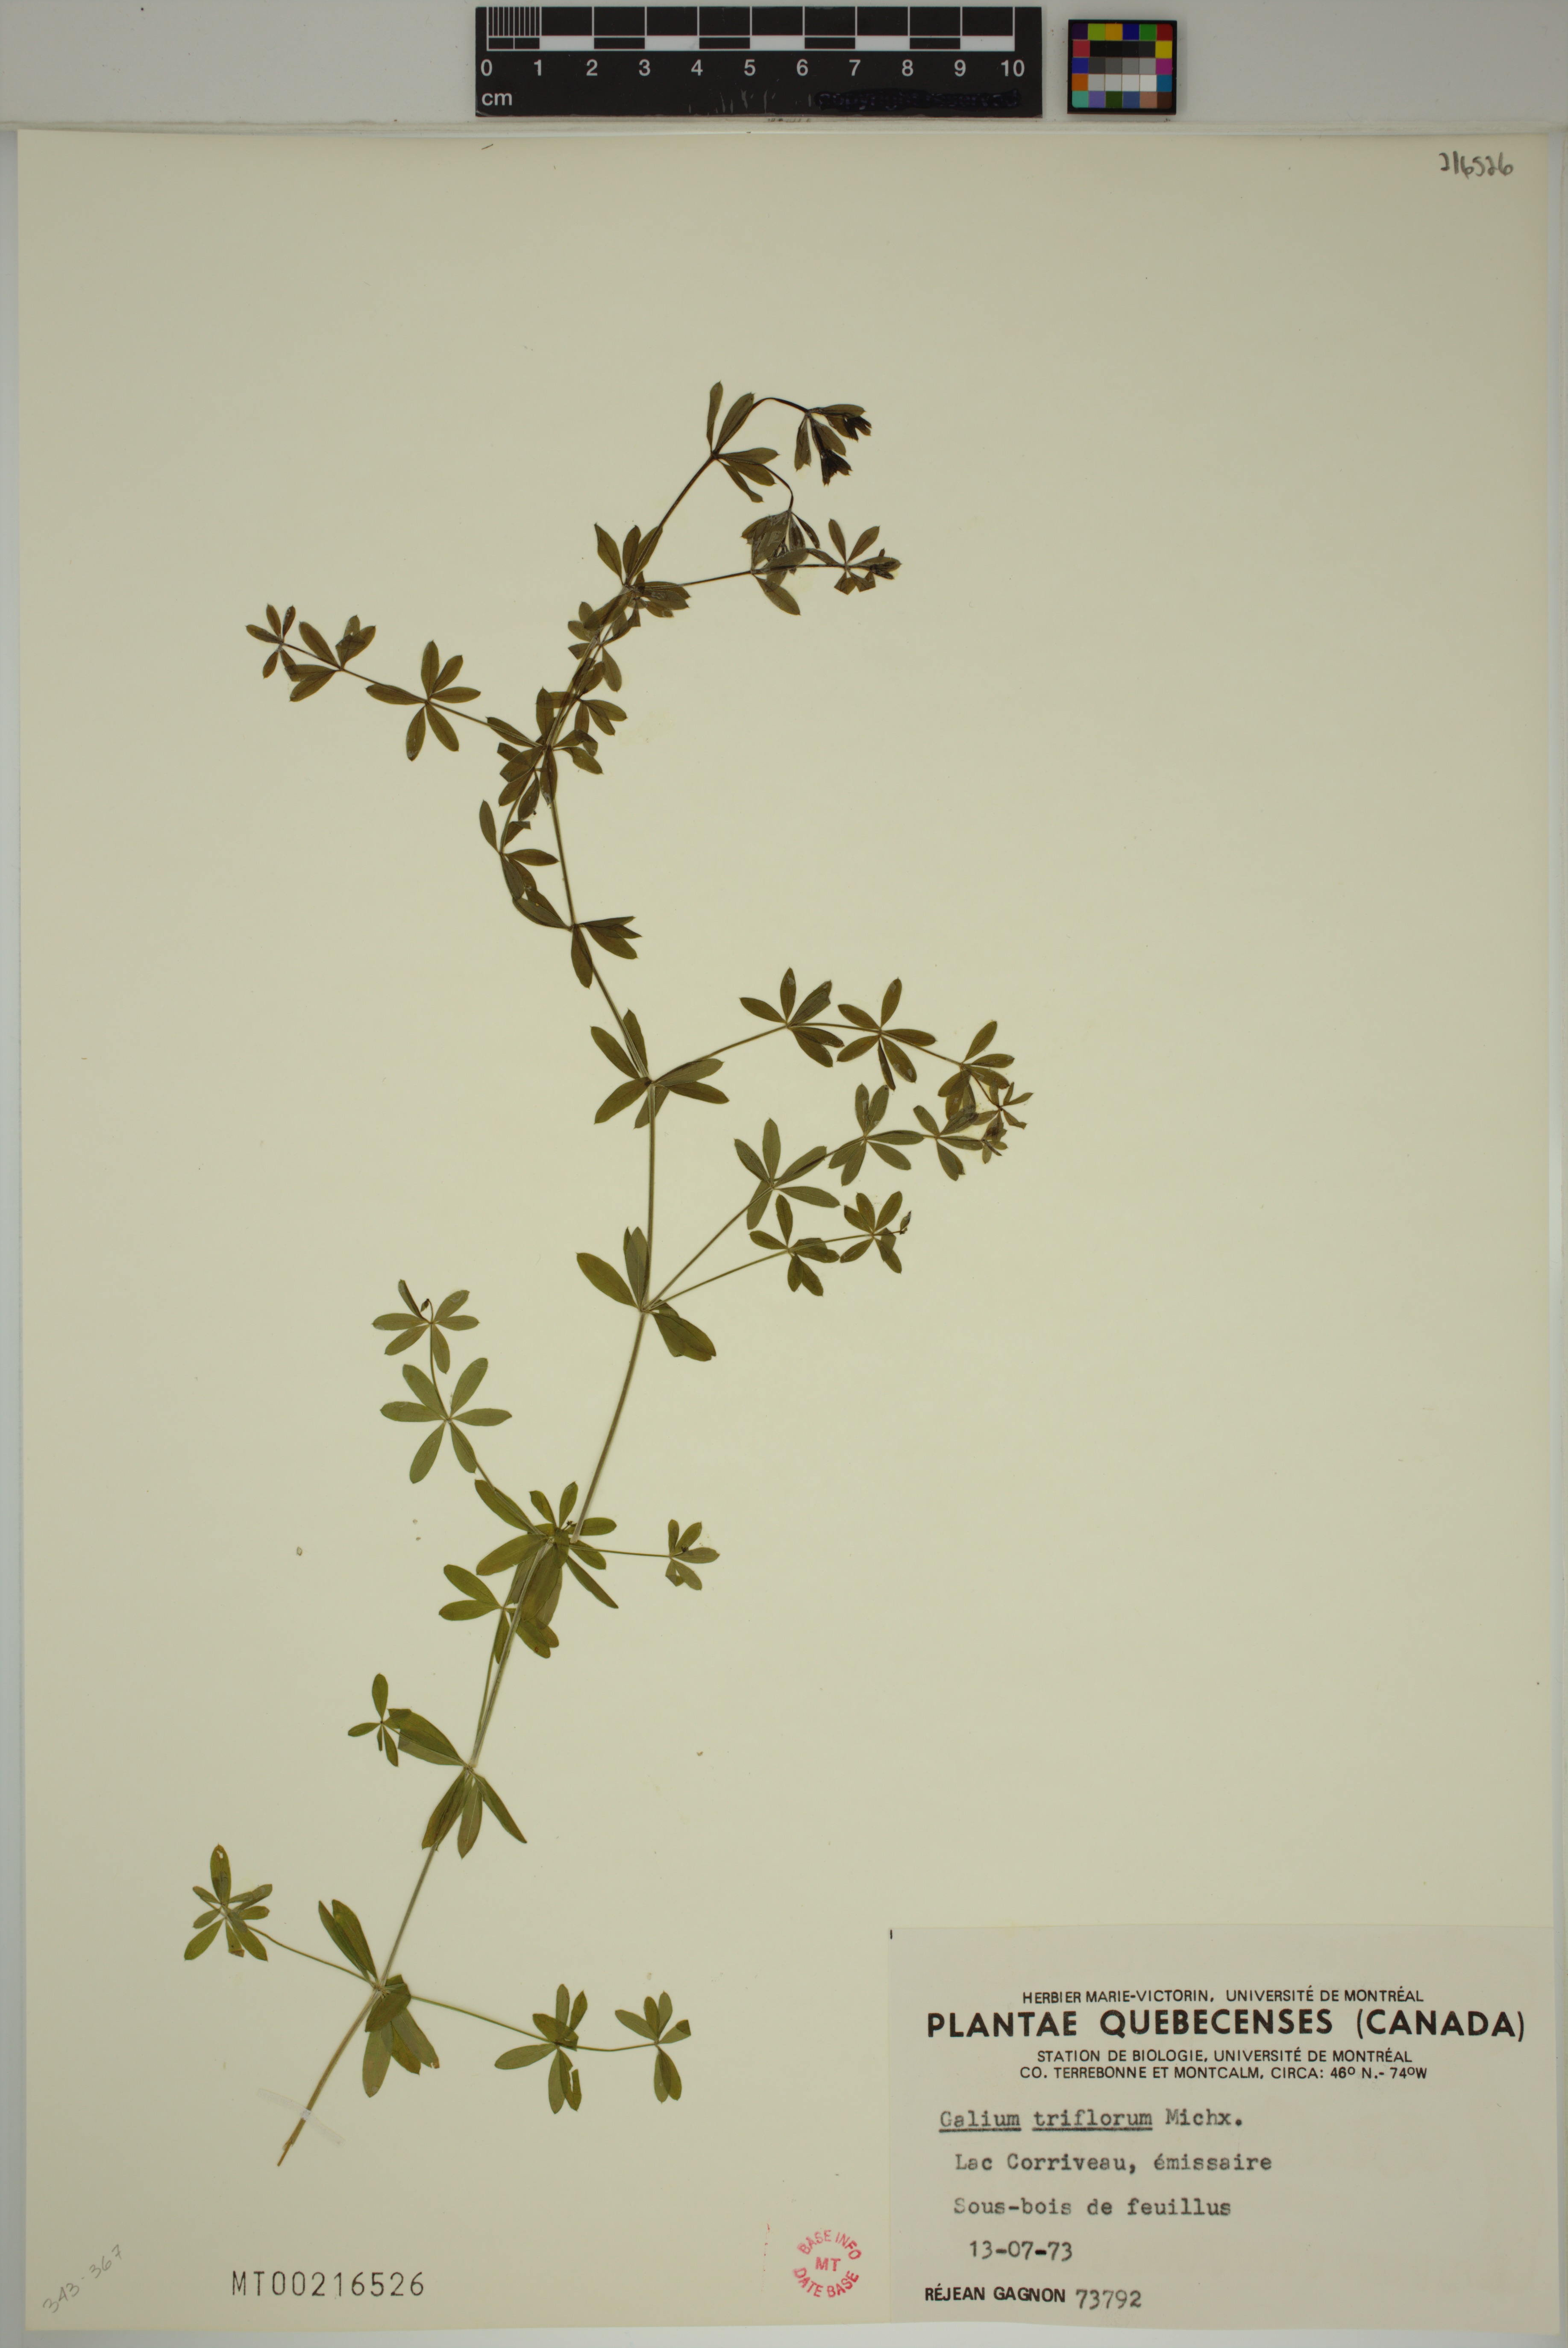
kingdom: Plantae
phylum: Tracheophyta
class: Magnoliopsida
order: Gentianales
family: Rubiaceae
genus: Galium
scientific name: Galium triflorum
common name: Fragrant bedstraw
